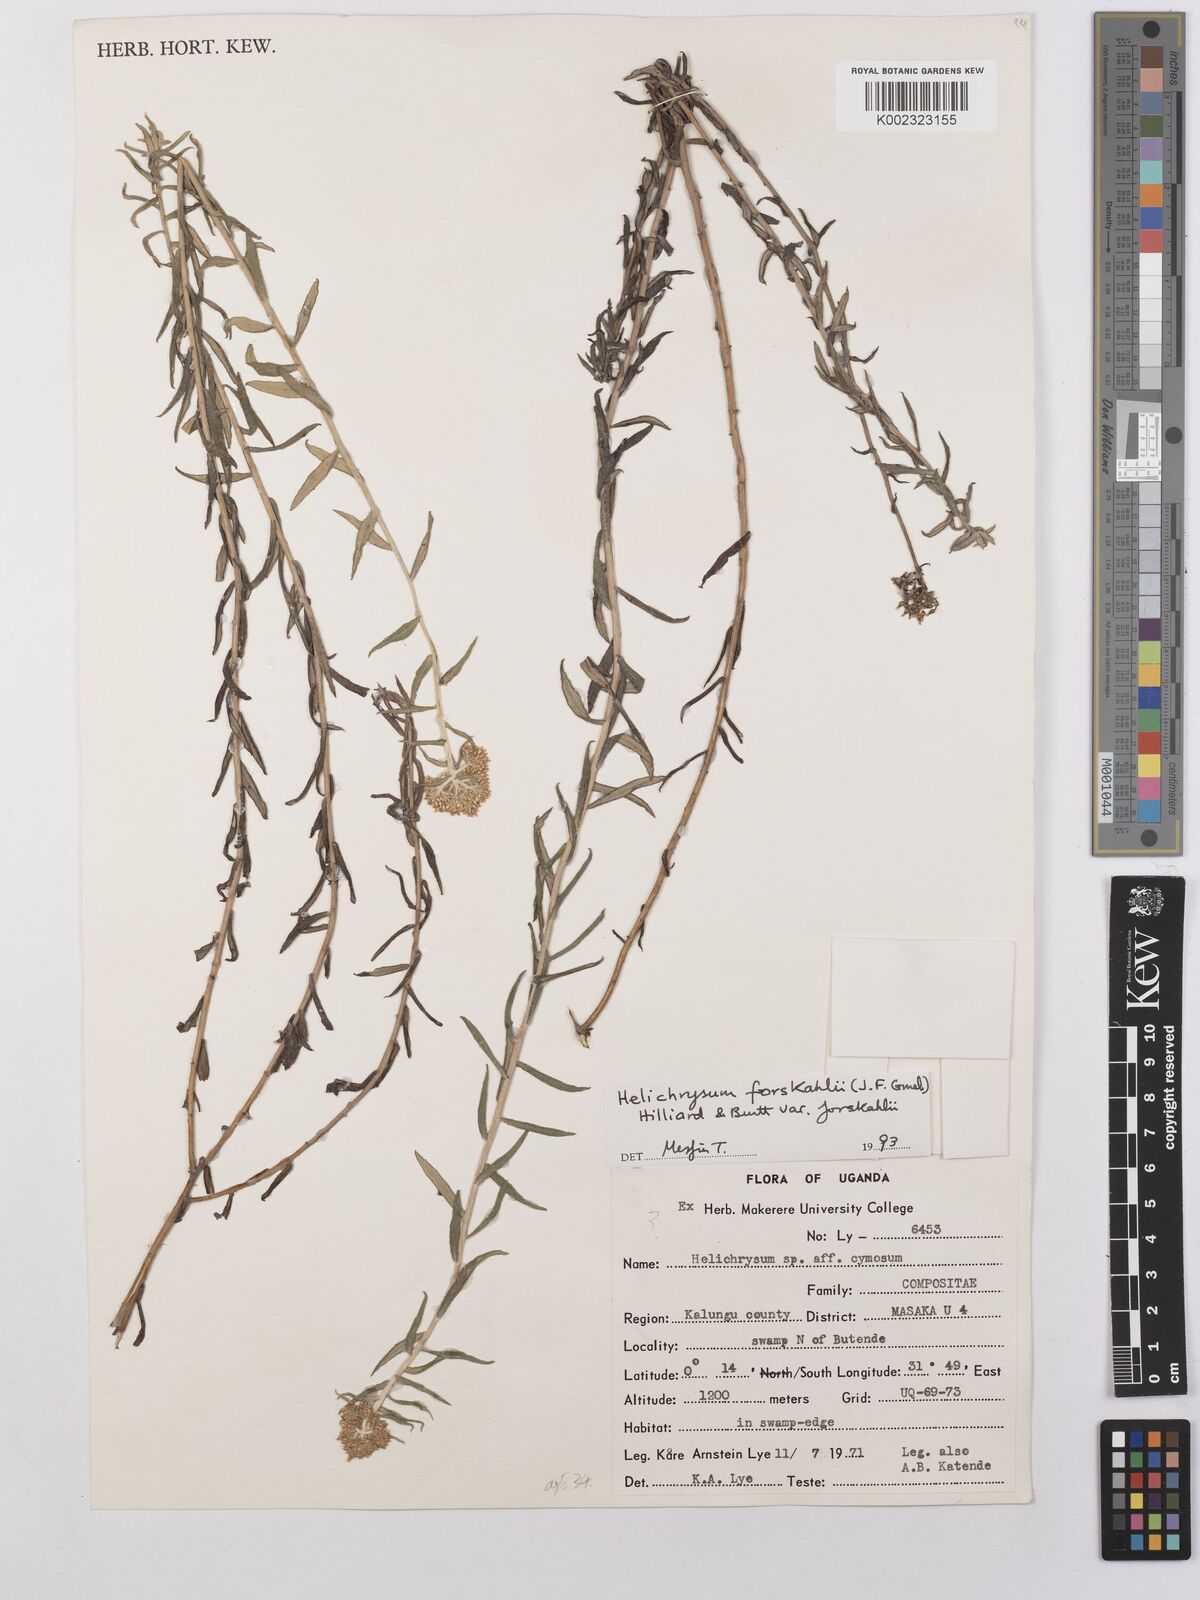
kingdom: Plantae
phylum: Tracheophyta
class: Magnoliopsida
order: Asterales
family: Asteraceae
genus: Helichrysum
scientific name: Helichrysum forskahlii
